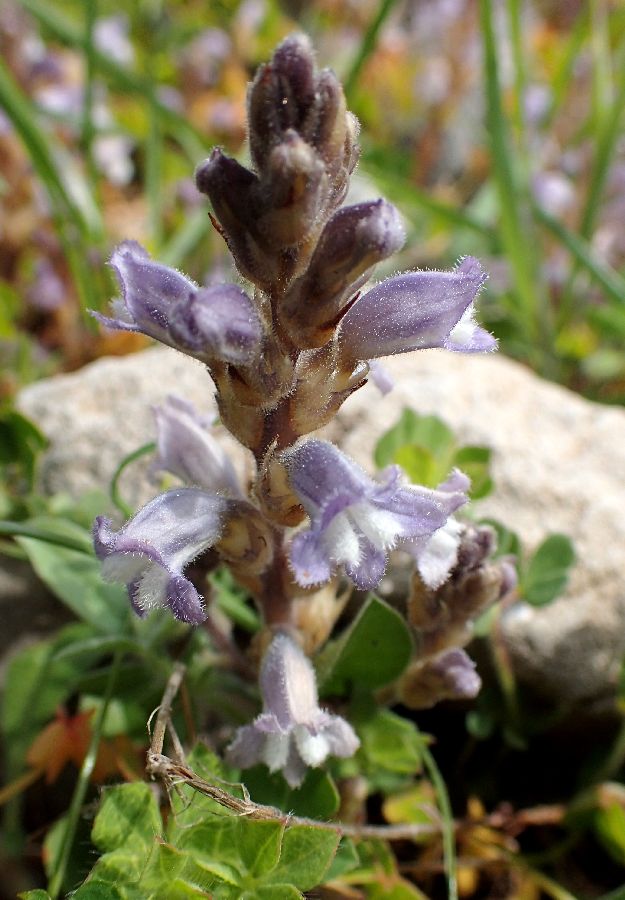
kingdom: Plantae
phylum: Tracheophyta
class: Magnoliopsida
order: Lamiales
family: Orobanchaceae
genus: Phelipanche
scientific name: Phelipanche mutelii
